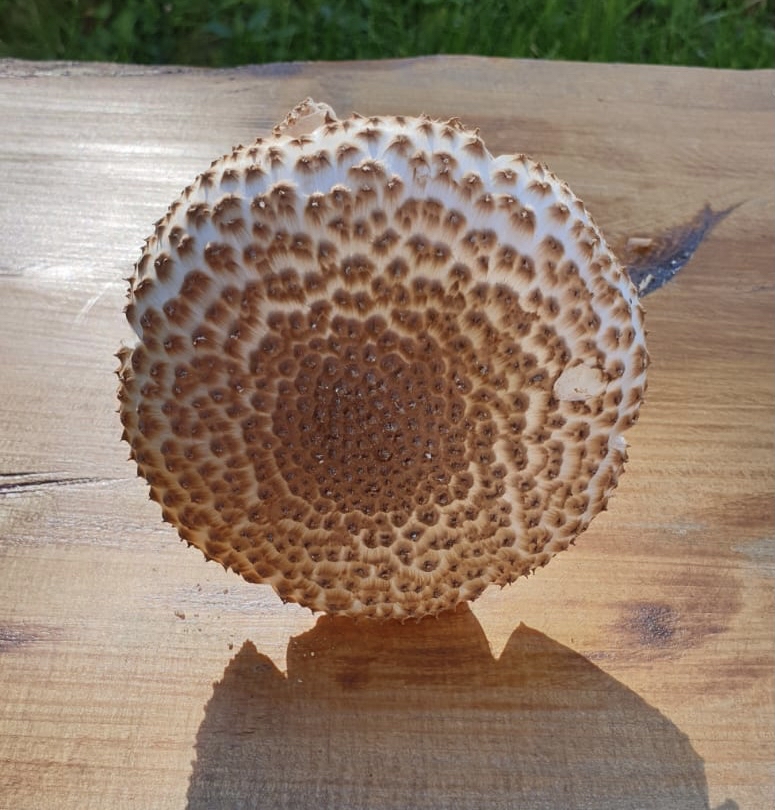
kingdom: Fungi
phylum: Basidiomycota
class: Agaricomycetes
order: Agaricales
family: Agaricaceae
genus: Echinoderma
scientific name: Echinoderma asperum
